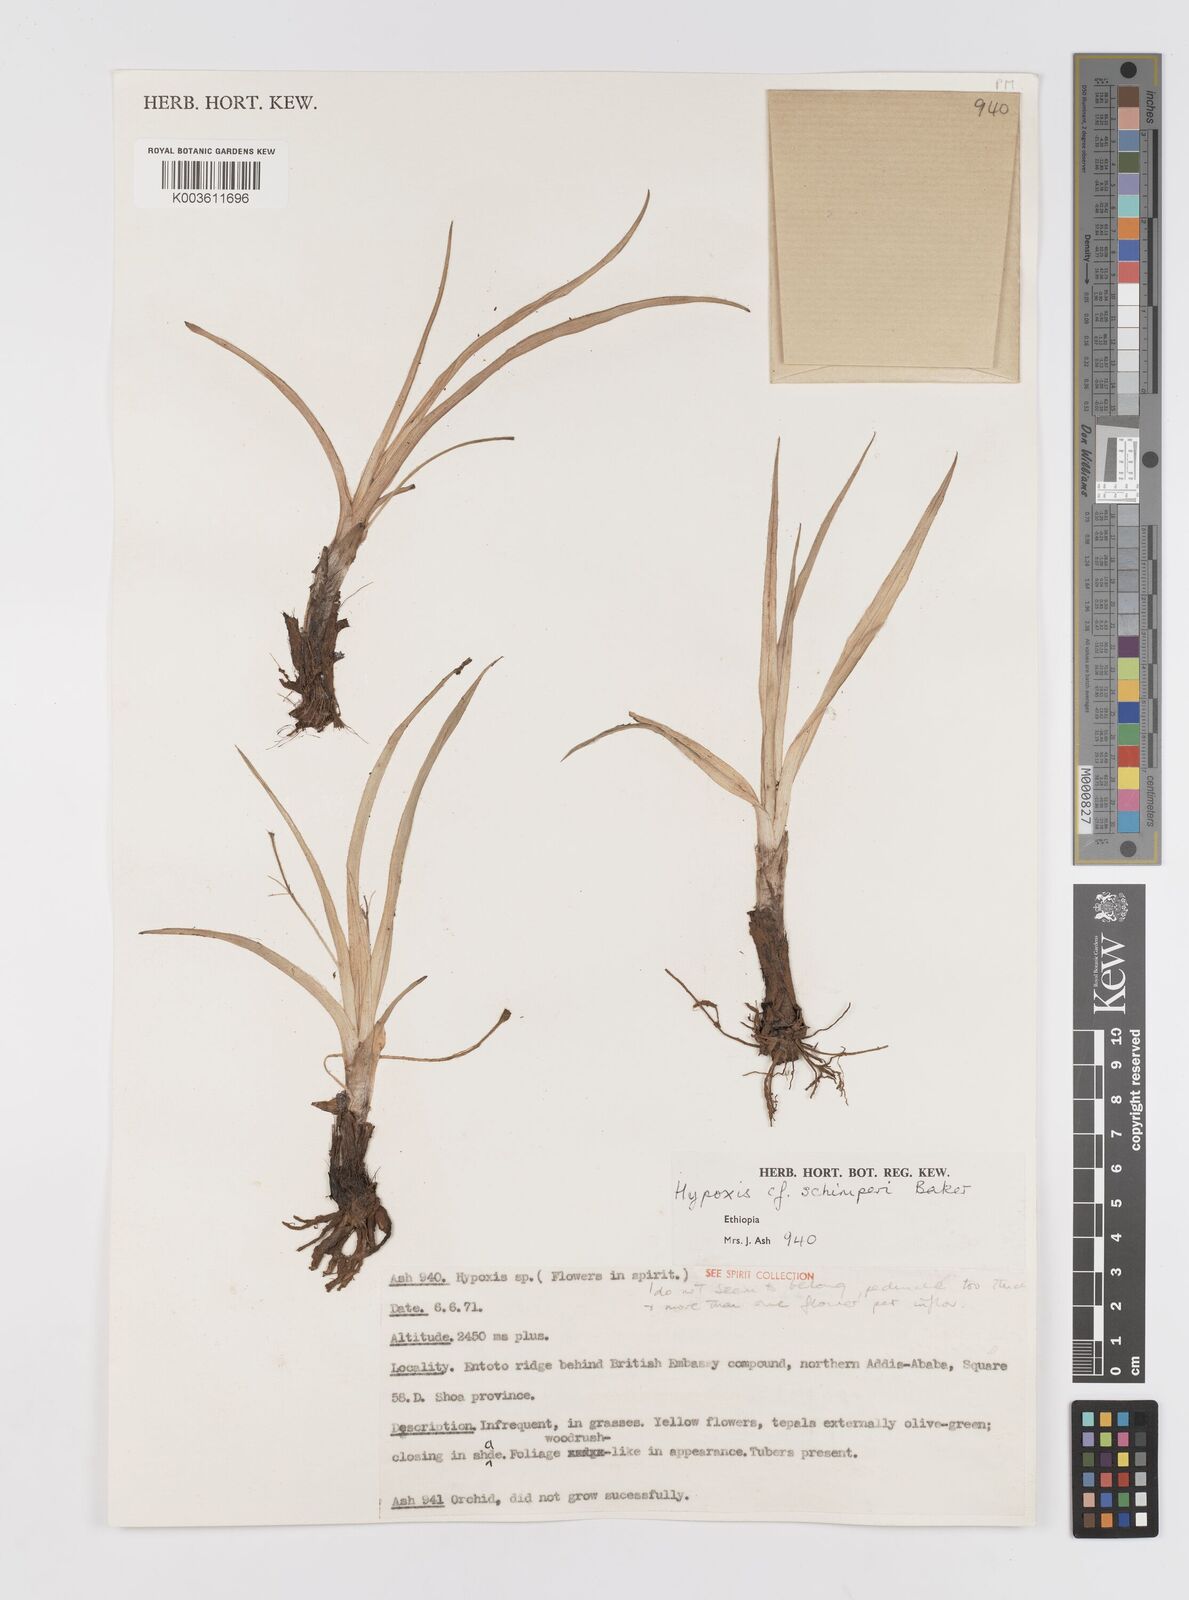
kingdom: Plantae
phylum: Tracheophyta
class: Liliopsida
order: Asparagales
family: Hypoxidaceae
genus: Hypoxis
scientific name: Hypoxis
